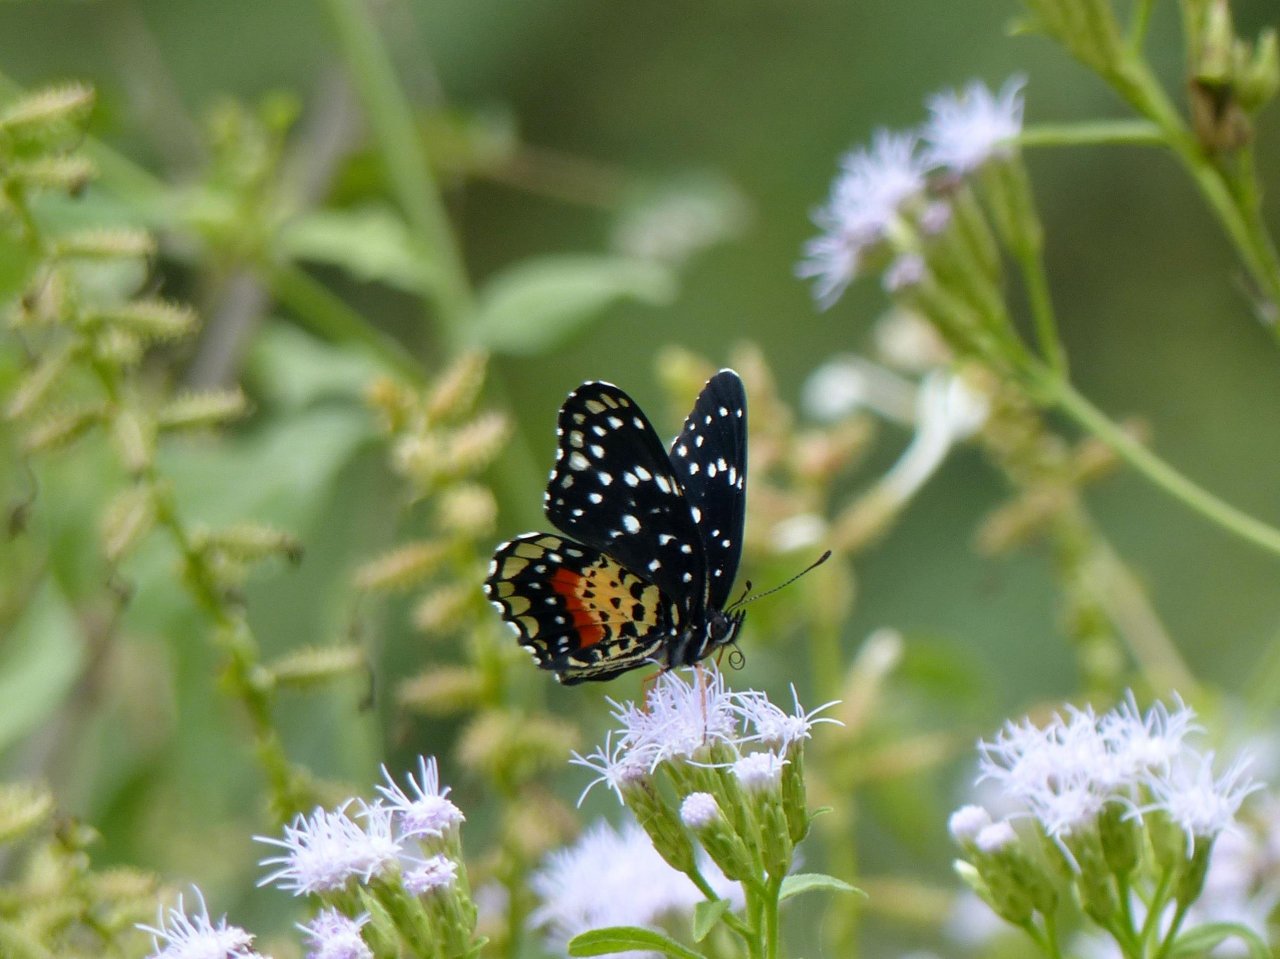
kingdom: Animalia
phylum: Arthropoda
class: Insecta
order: Lepidoptera
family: Nymphalidae
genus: Chlosyne
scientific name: Chlosyne janais
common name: Crimson Patch
